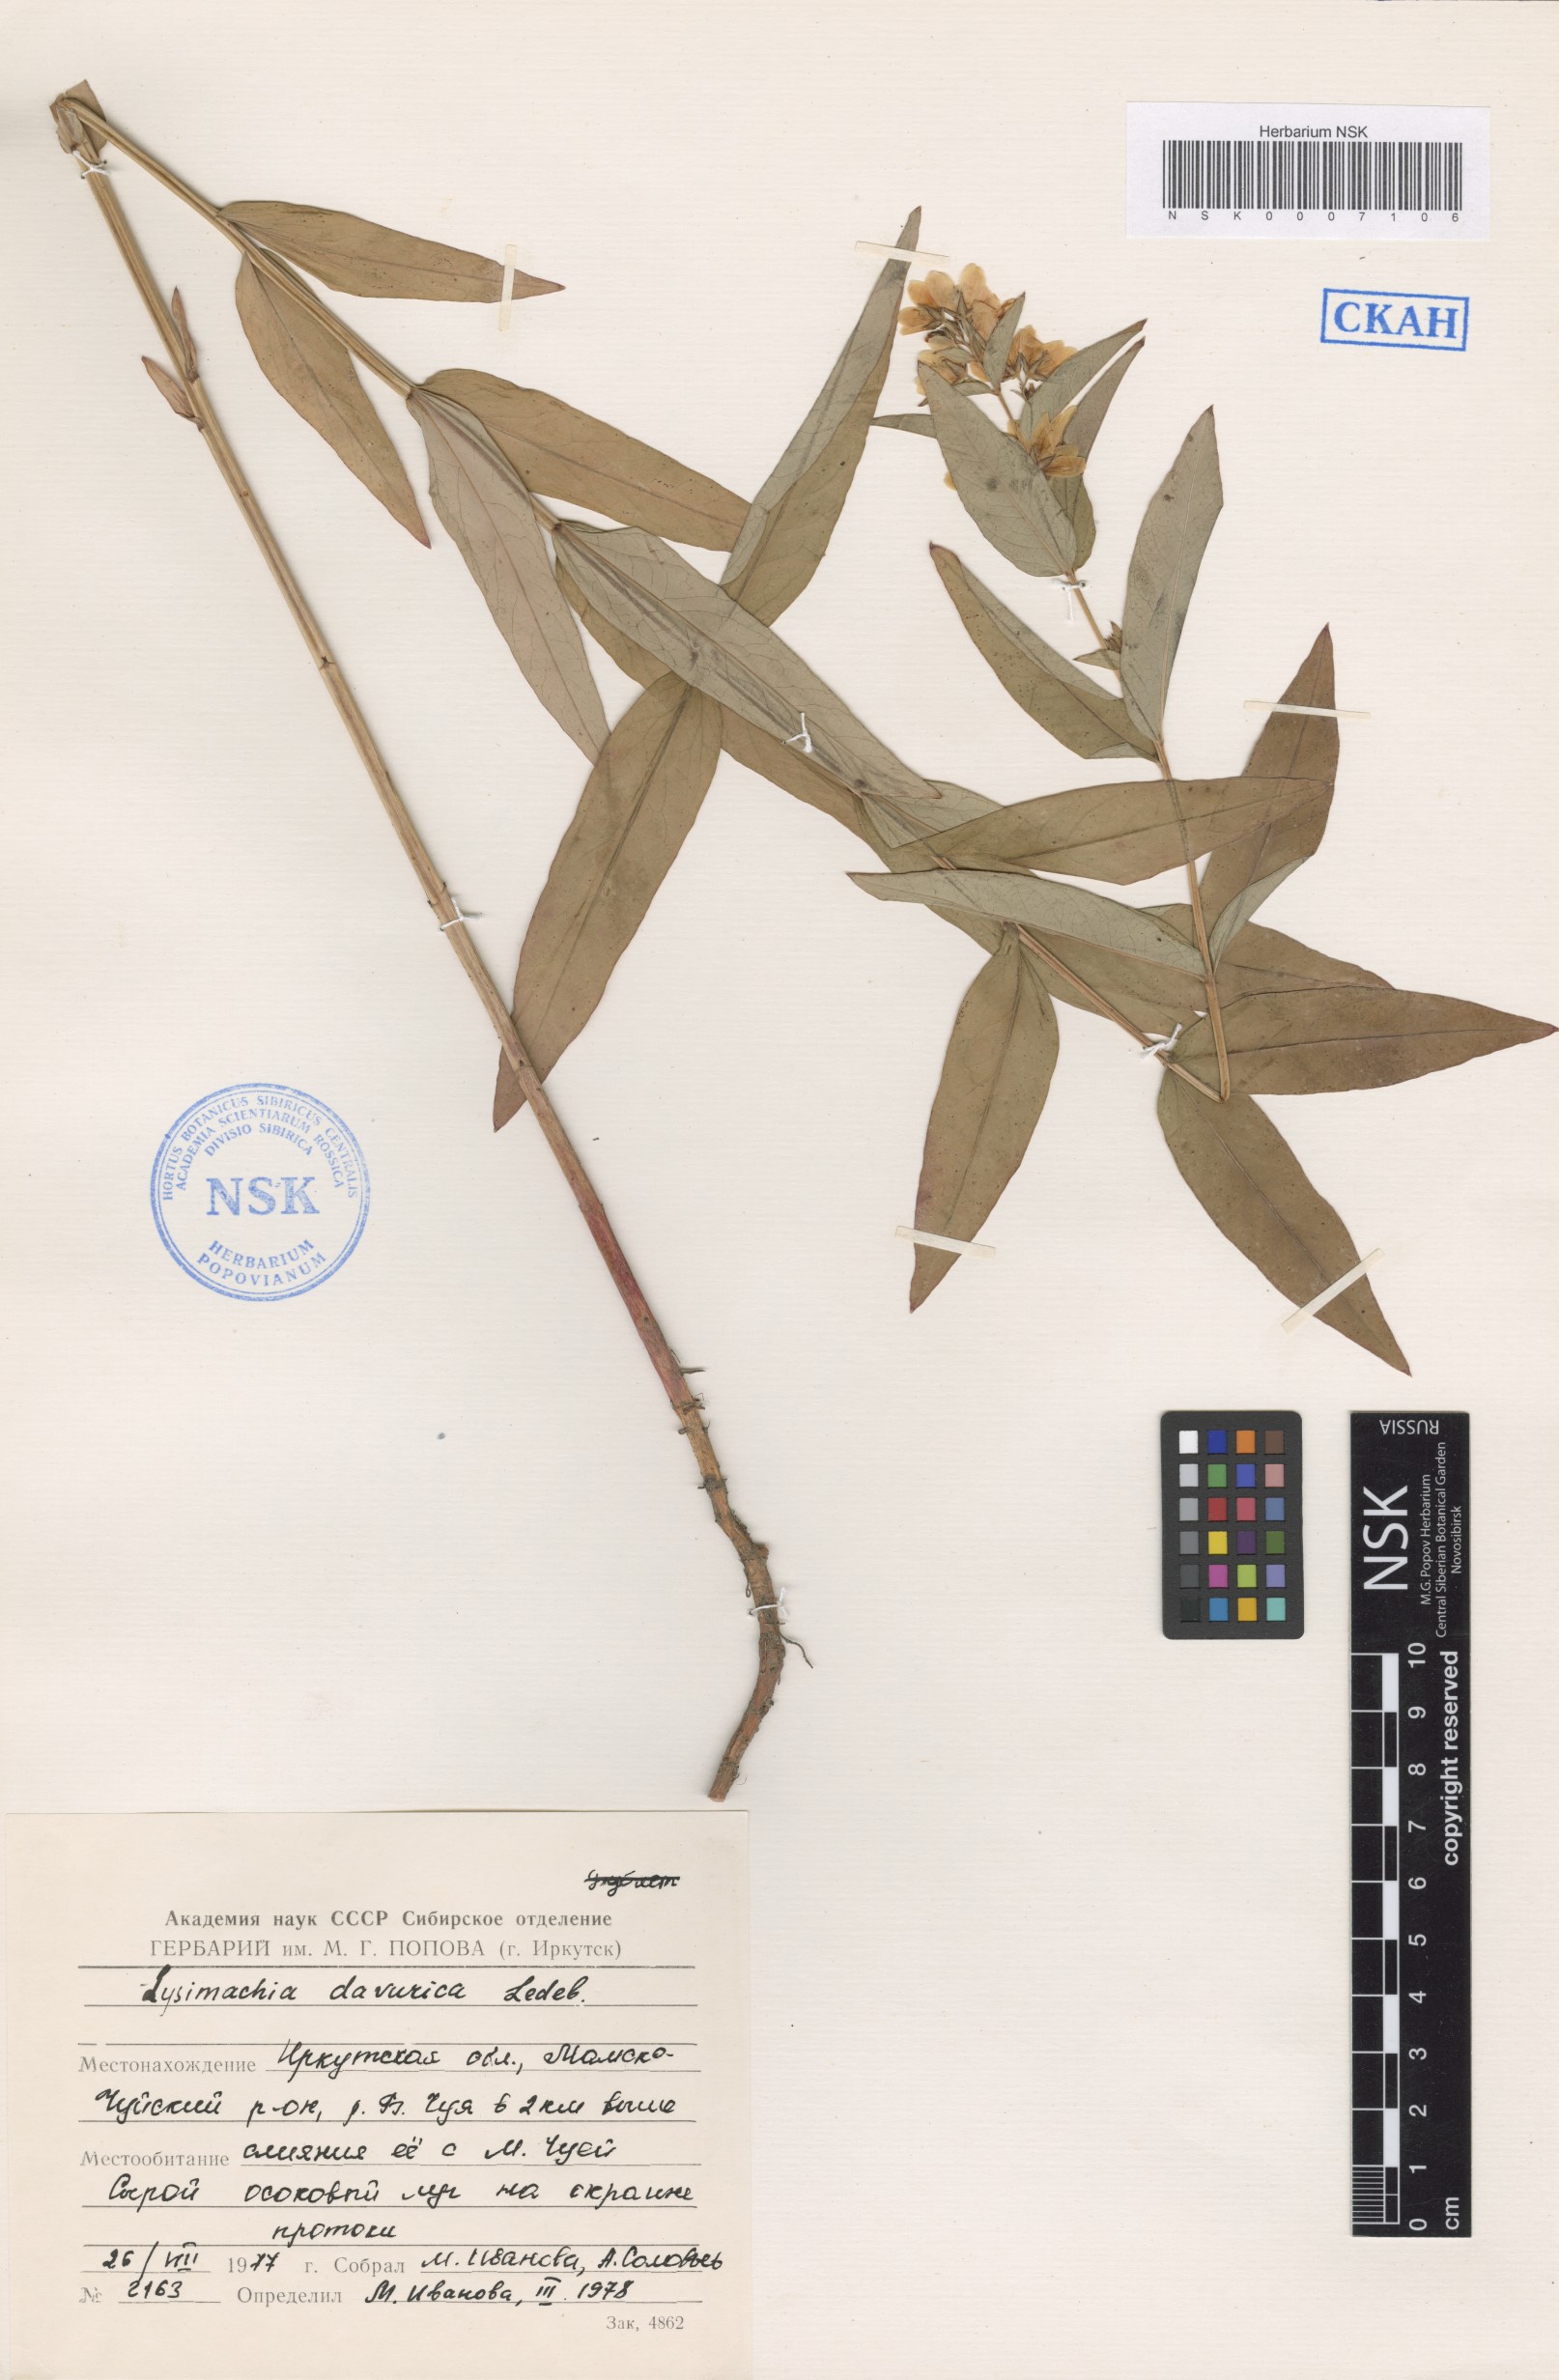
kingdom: Plantae
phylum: Tracheophyta
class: Magnoliopsida
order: Ericales
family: Primulaceae
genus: Lysimachia
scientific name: Lysimachia davurica
